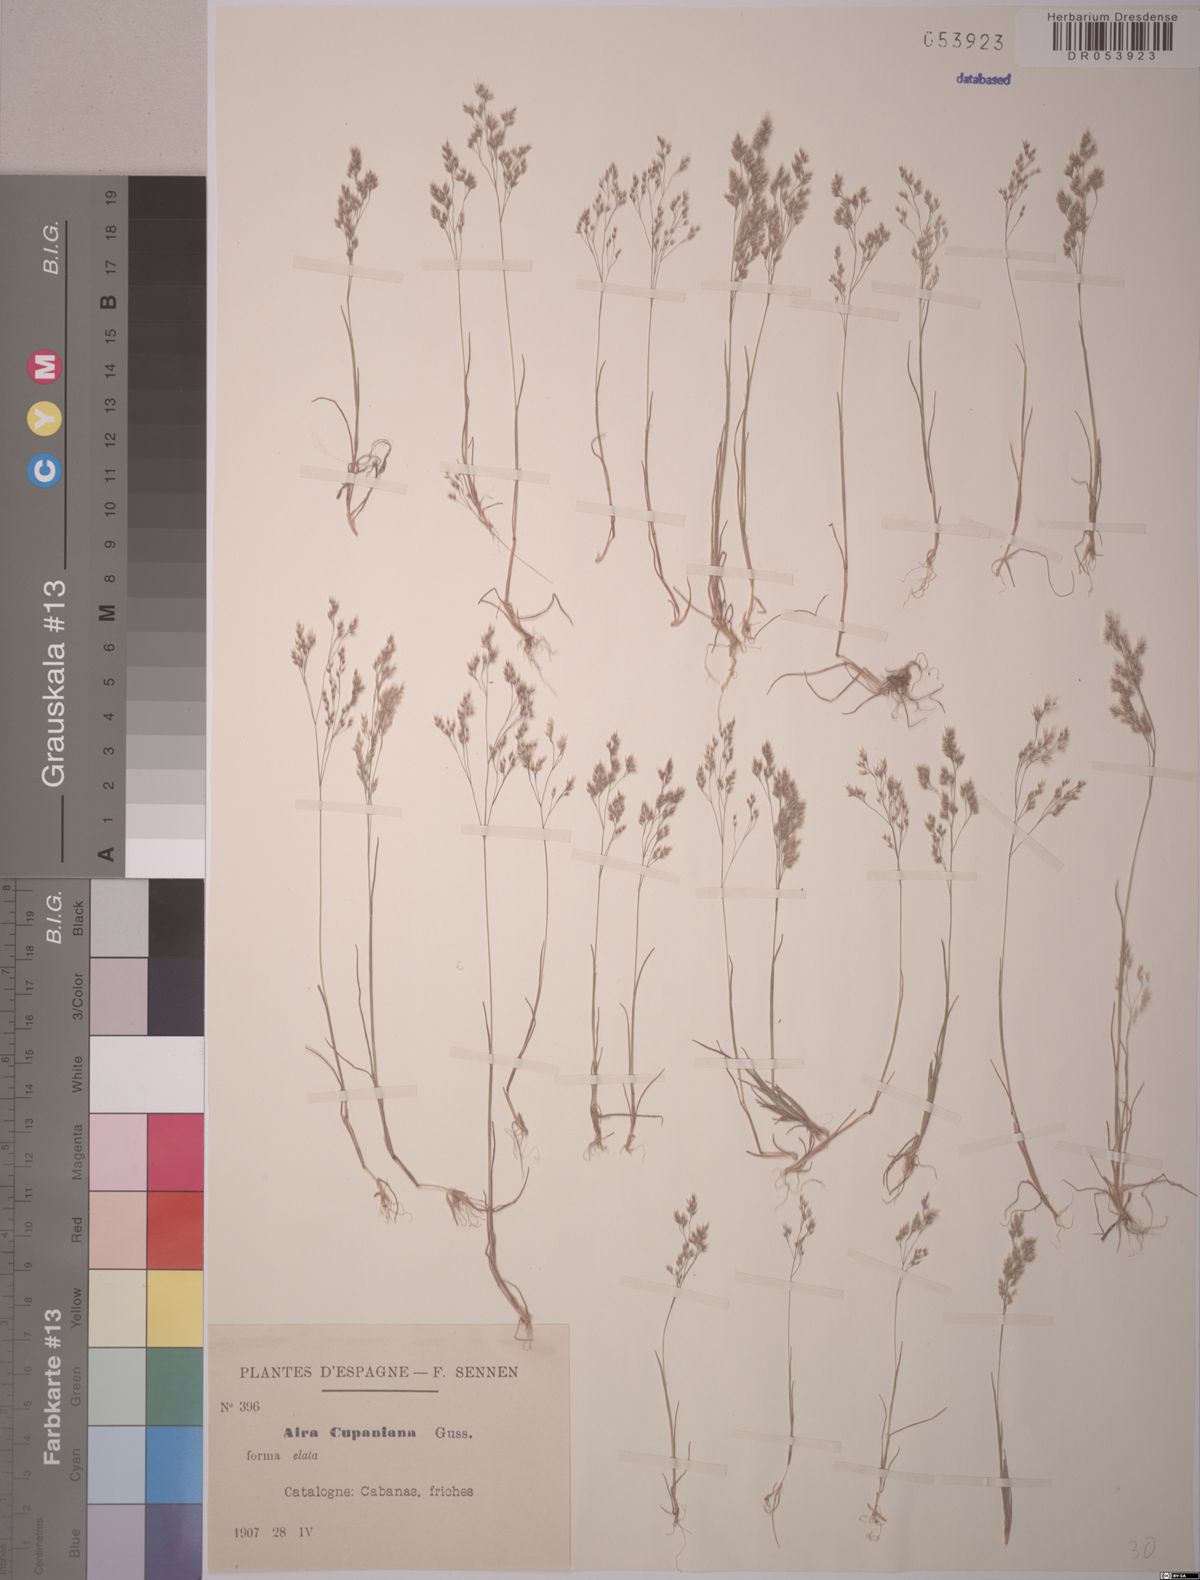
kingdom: Plantae
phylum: Tracheophyta
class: Liliopsida
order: Poales
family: Poaceae
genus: Aira
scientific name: Aira cupaniana
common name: Silver hairgrass
